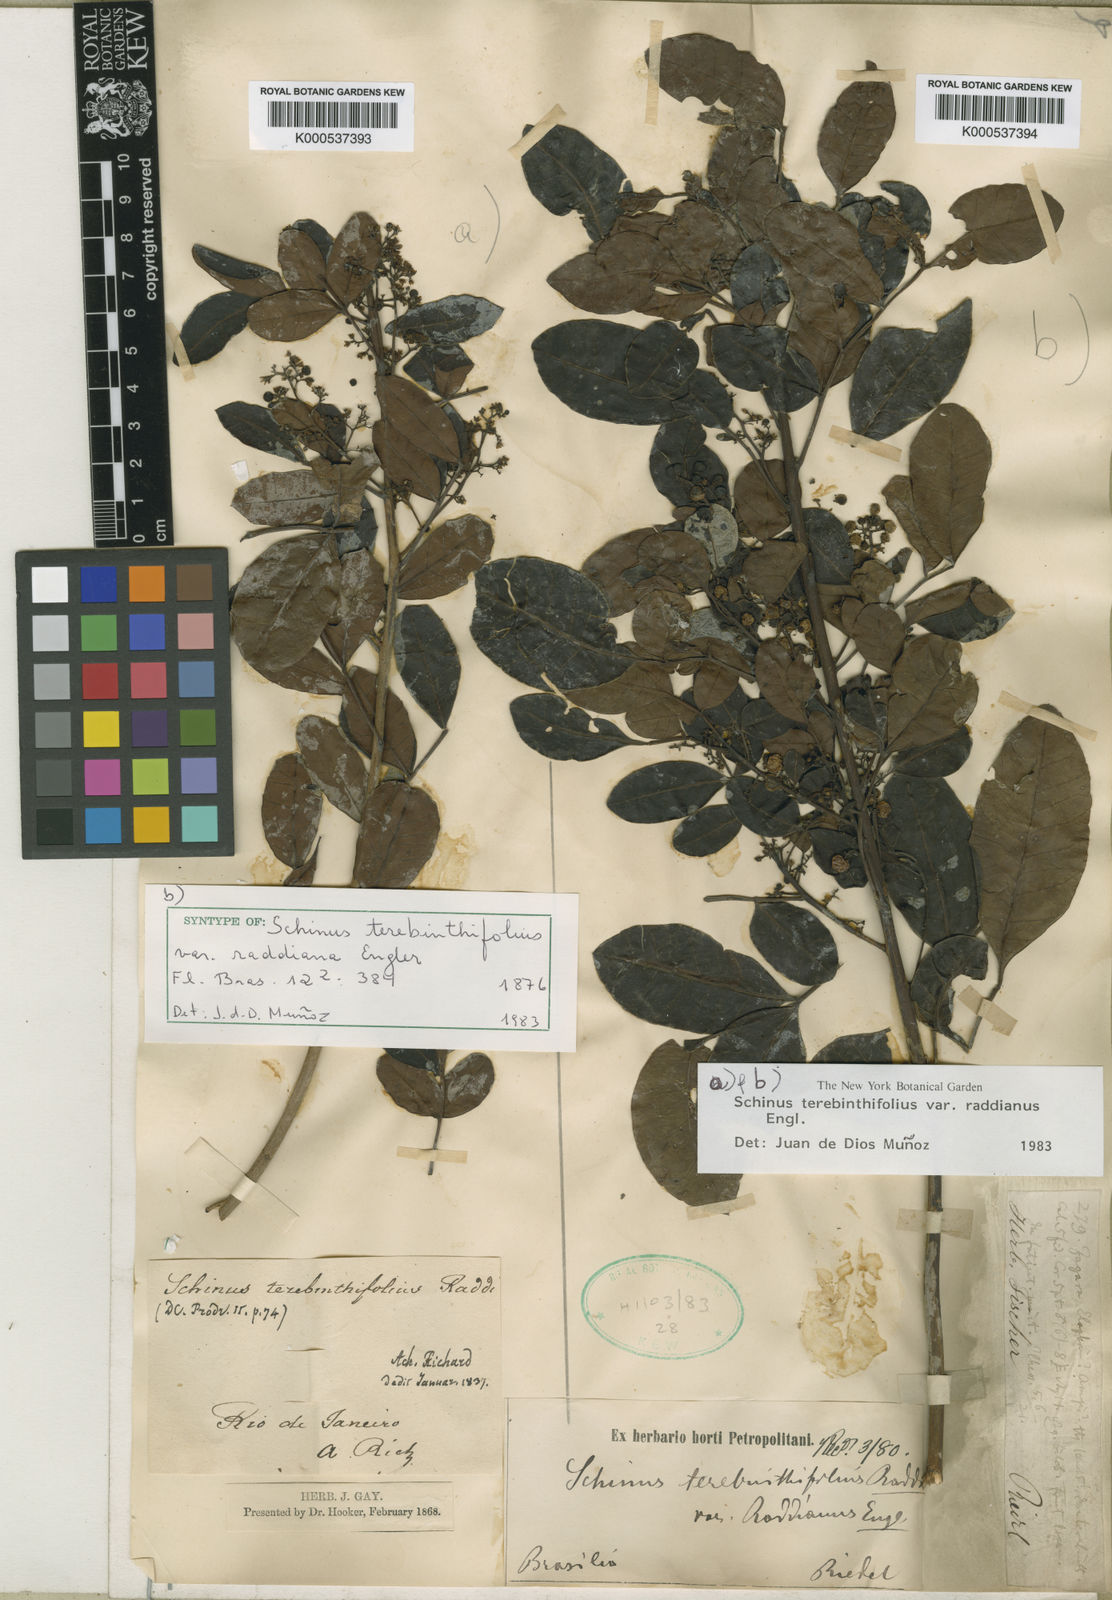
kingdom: Plantae
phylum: Tracheophyta
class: Magnoliopsida
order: Sapindales
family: Anacardiaceae
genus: Schinus
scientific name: Schinus terebinthifolia
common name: Brazilian peppertree
